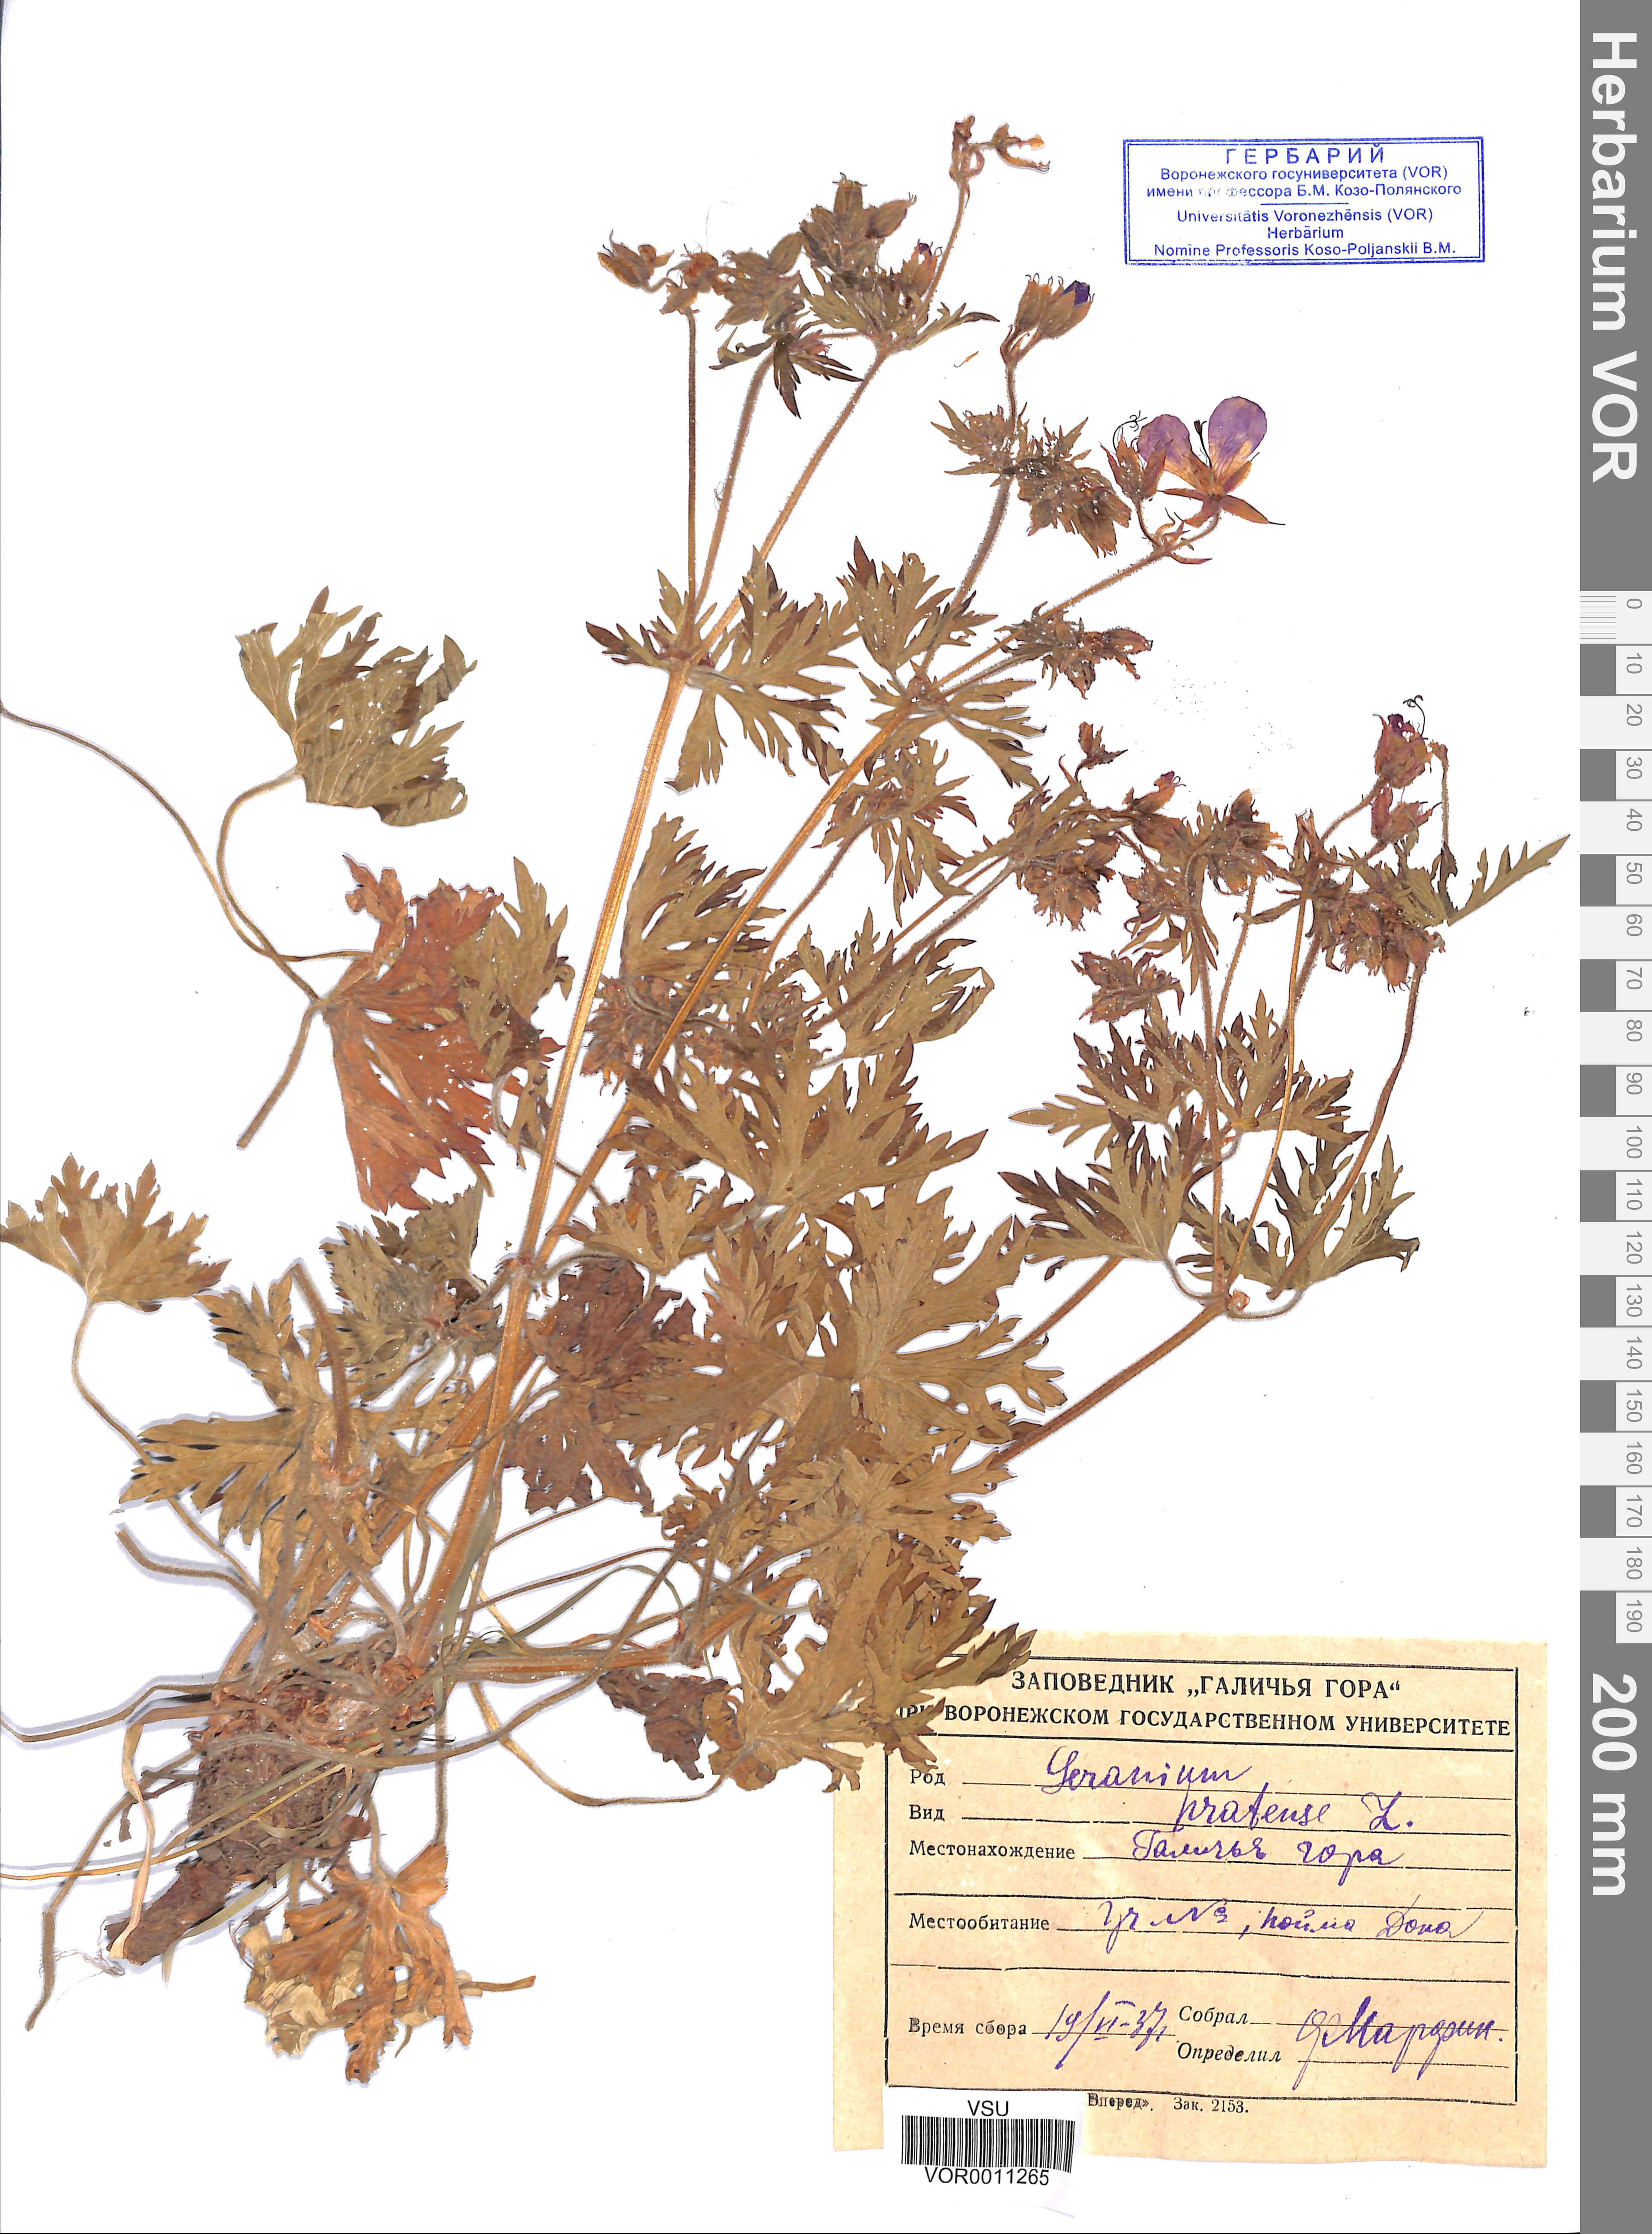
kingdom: Plantae
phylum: Tracheophyta
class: Magnoliopsida
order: Geraniales
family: Geraniaceae
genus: Geranium
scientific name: Geranium pratense
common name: Meadow crane's-bill
